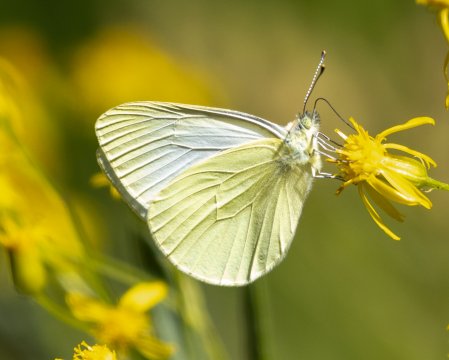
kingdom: Animalia
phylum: Arthropoda
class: Insecta
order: Lepidoptera
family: Pieridae
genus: Pieris
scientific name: Pieris marginalis
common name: Margined White
